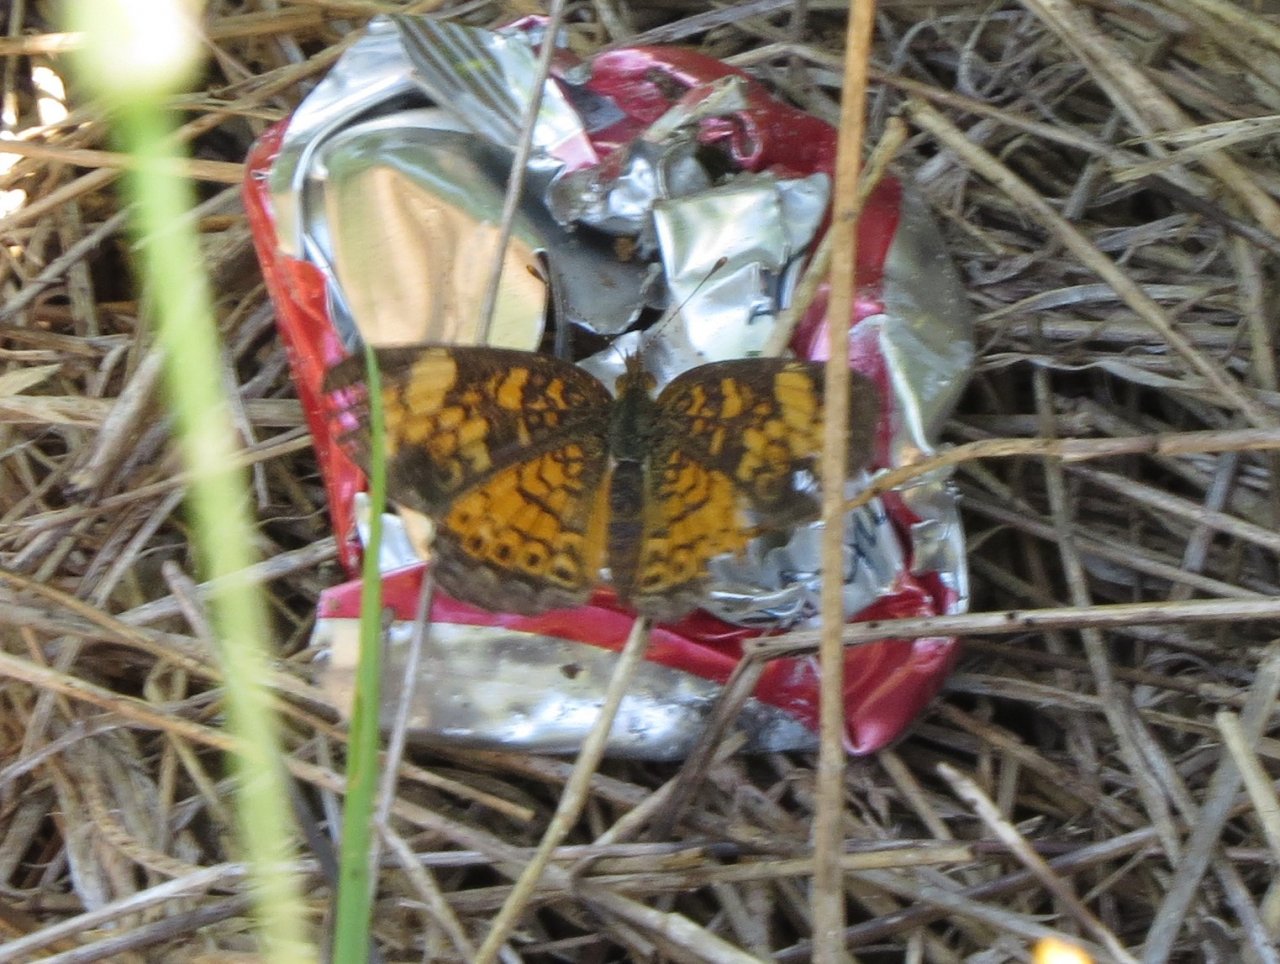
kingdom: Animalia
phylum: Arthropoda
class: Insecta
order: Lepidoptera
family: Nymphalidae
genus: Phyciodes
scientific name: Phyciodes tharos
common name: Pearl Crescent
